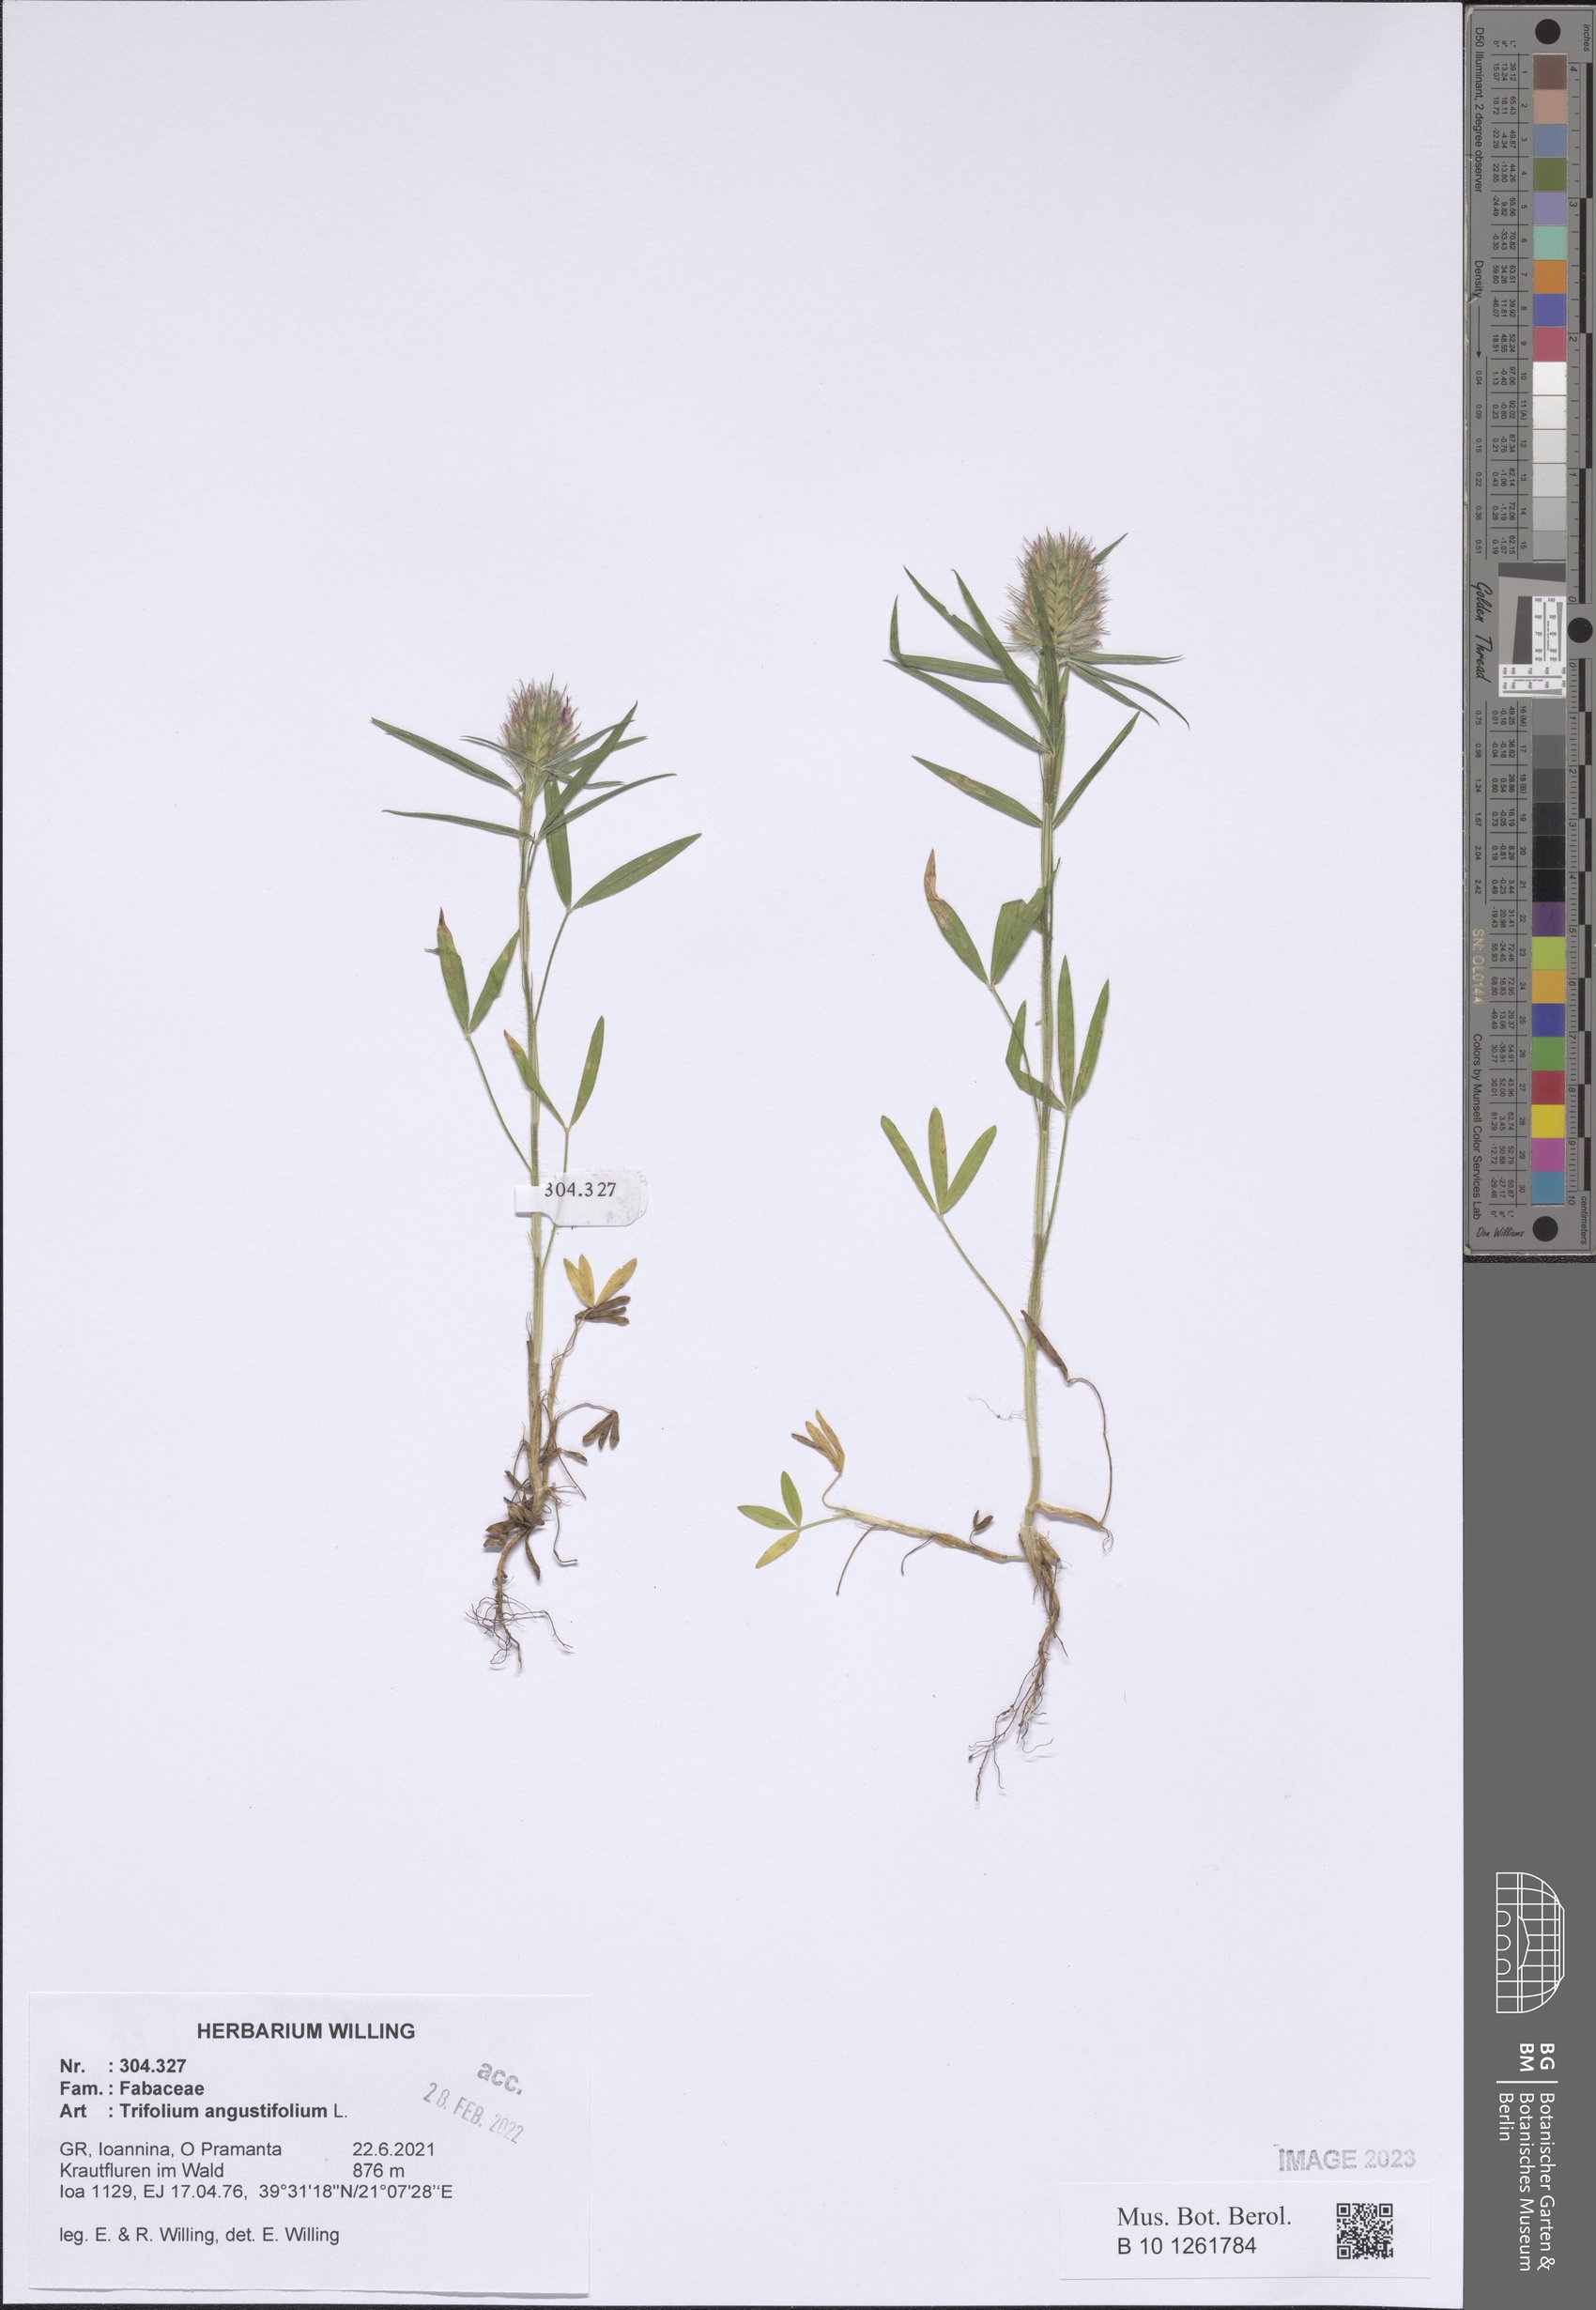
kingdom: Plantae
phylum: Tracheophyta
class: Magnoliopsida
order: Fabales
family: Fabaceae
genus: Trifolium
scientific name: Trifolium angustifolium
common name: Narrow clover
